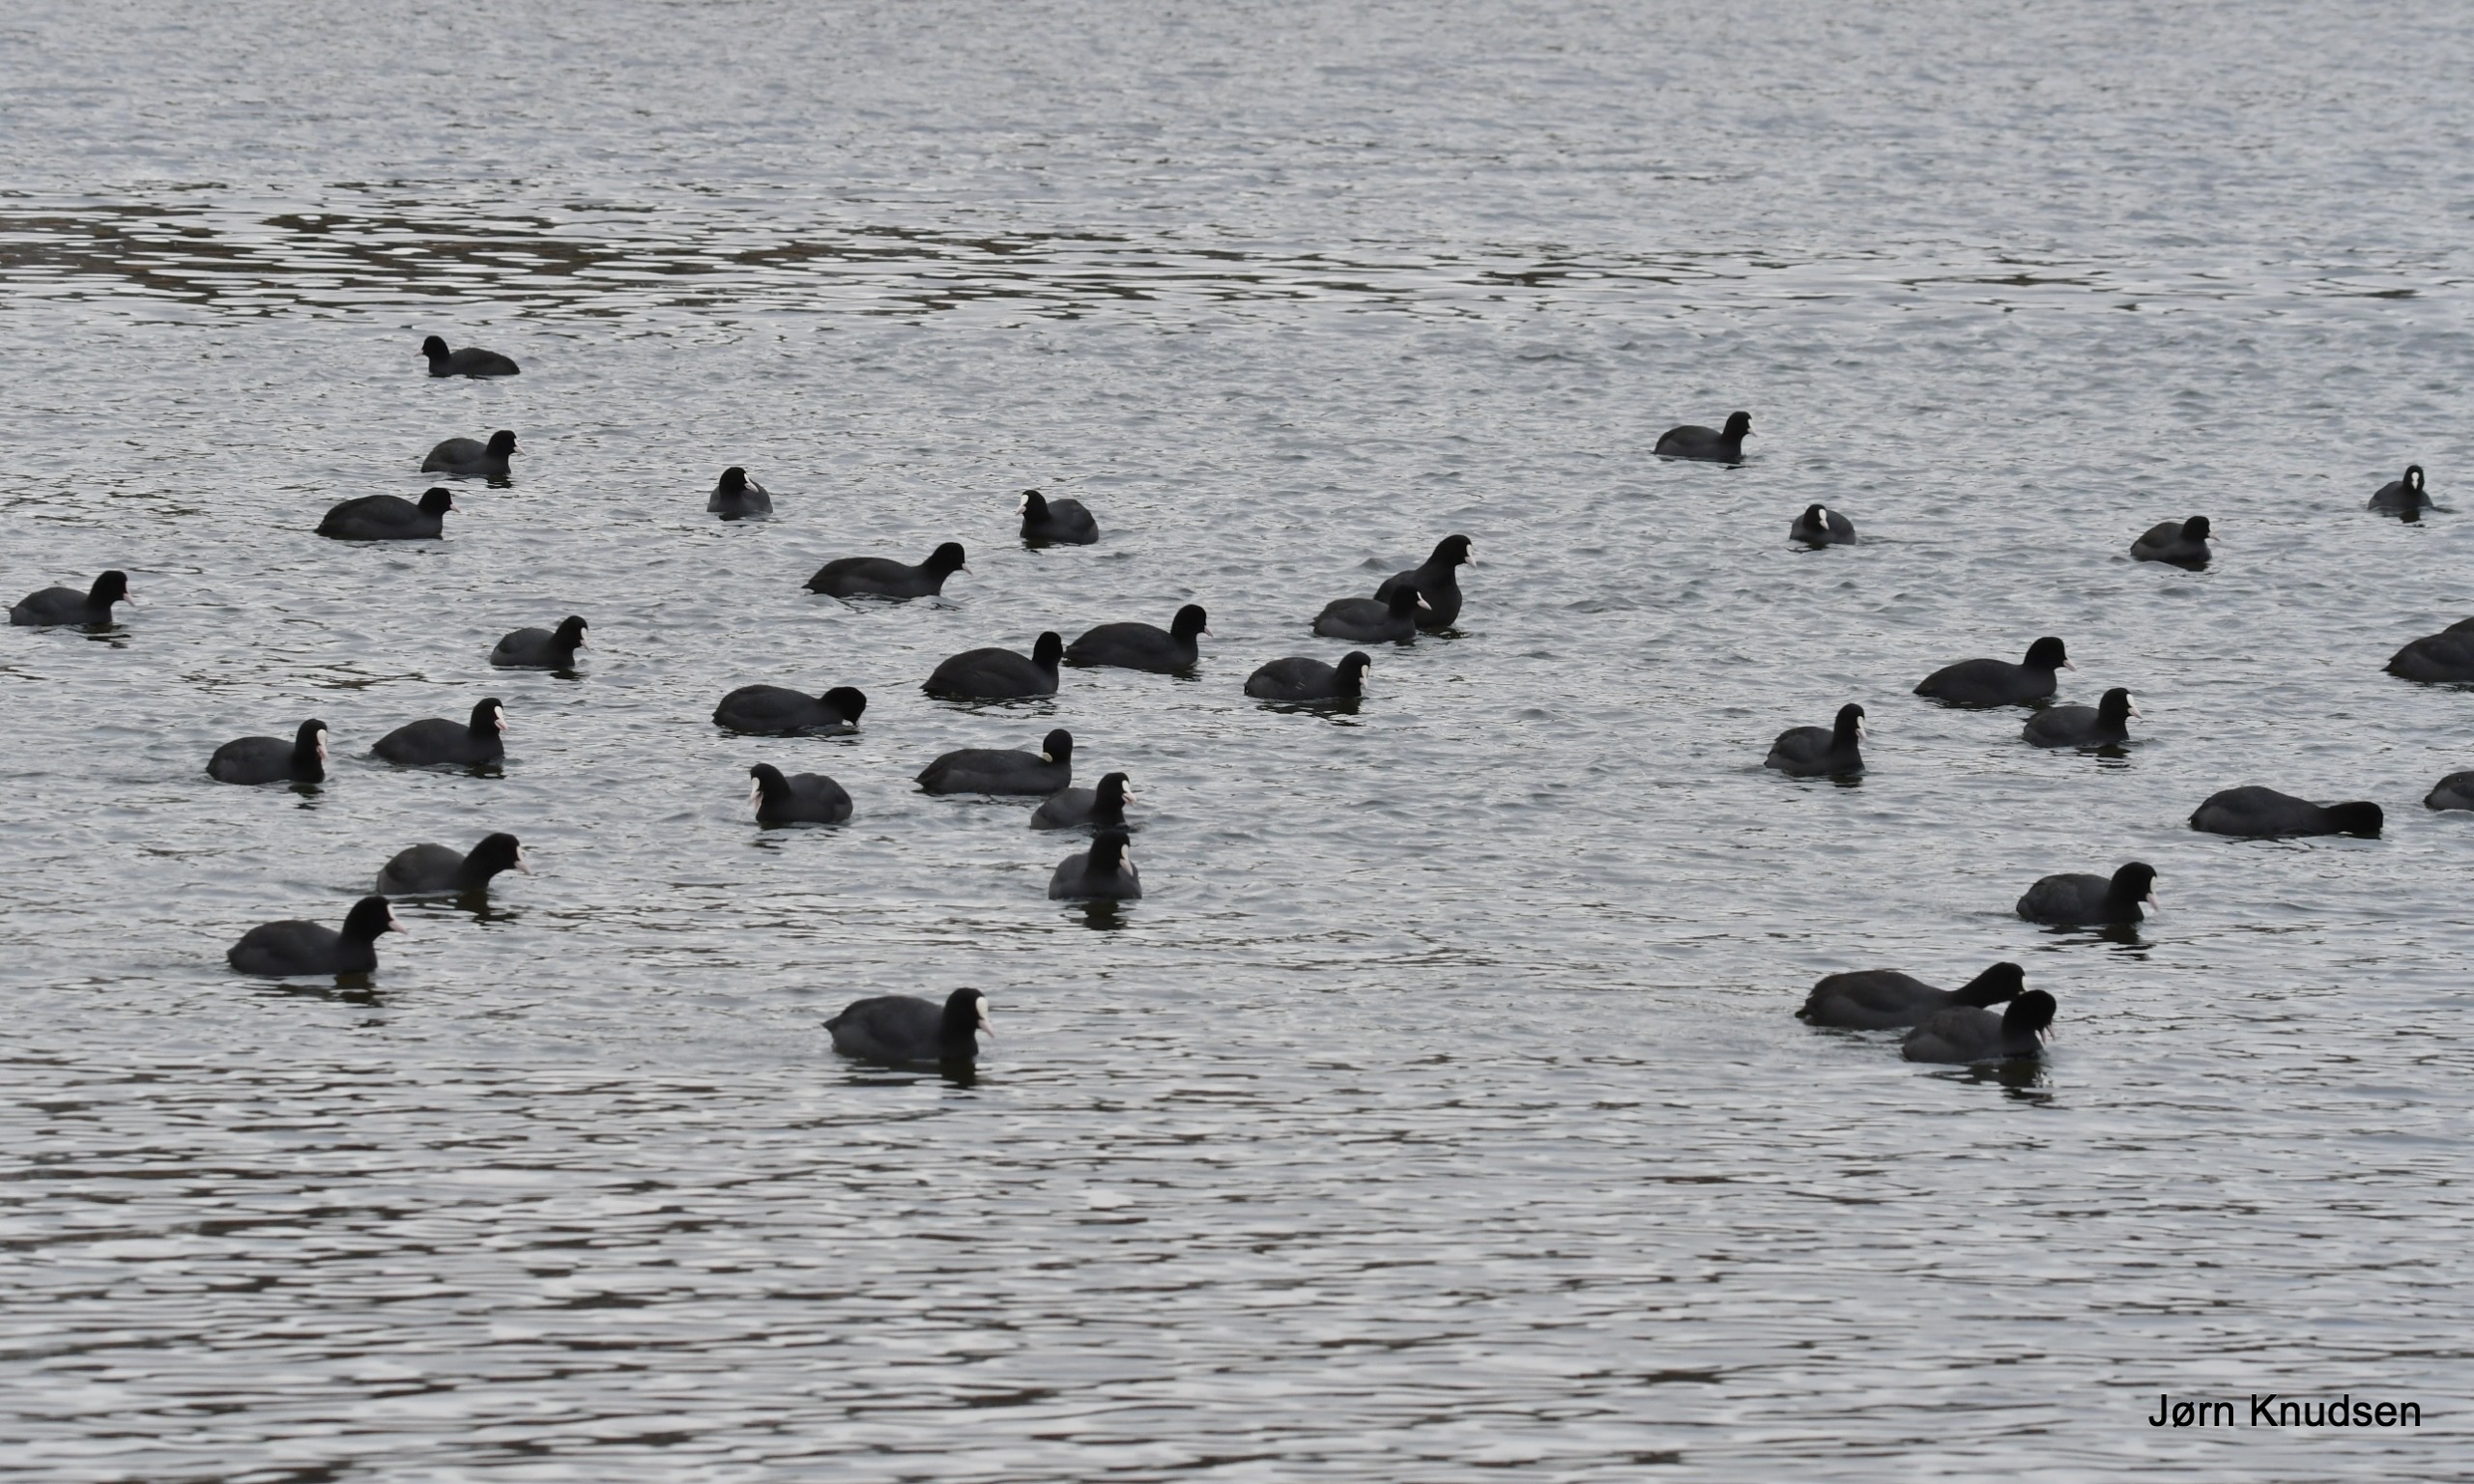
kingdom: Animalia
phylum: Chordata
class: Aves
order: Gruiformes
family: Rallidae
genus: Fulica
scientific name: Fulica atra
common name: Blishøne
